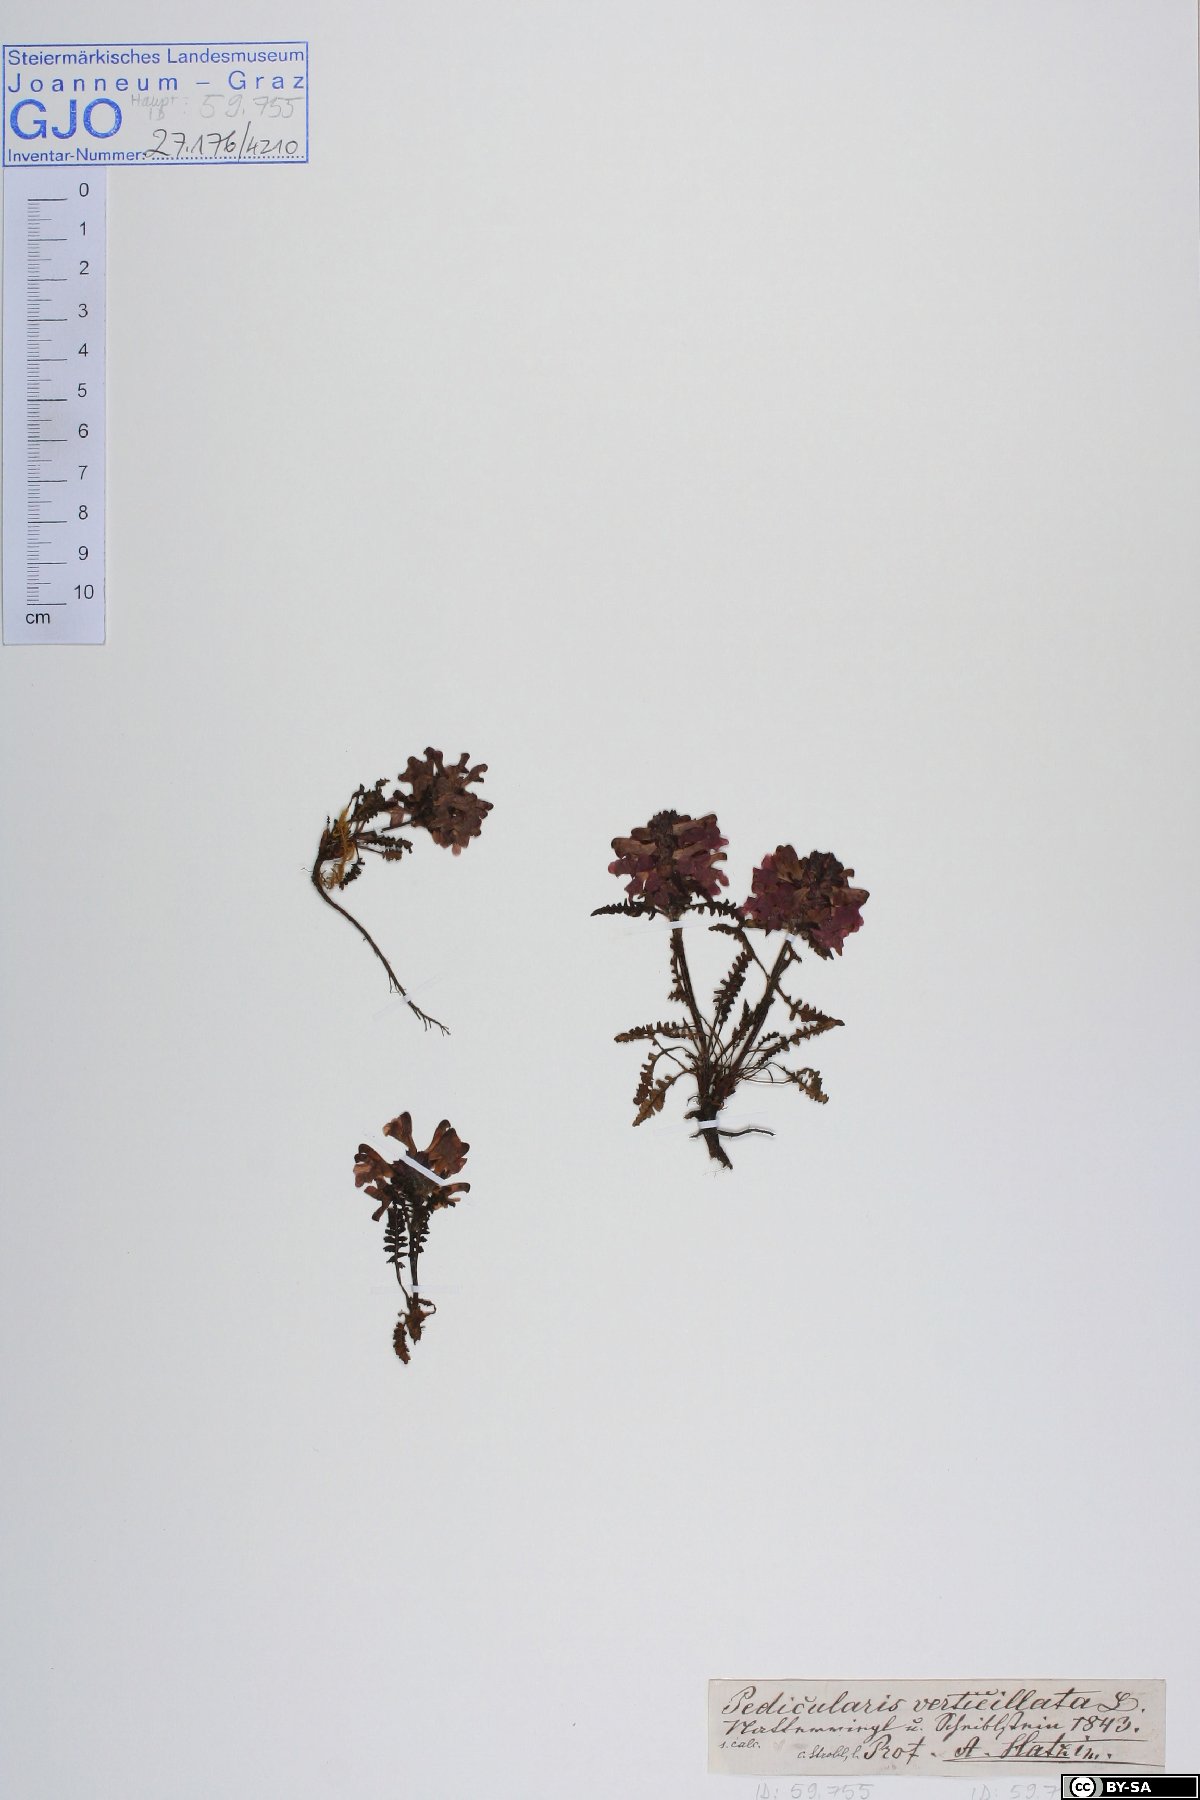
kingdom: Plantae
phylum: Tracheophyta
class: Magnoliopsida
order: Lamiales
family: Orobanchaceae
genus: Pedicularis
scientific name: Pedicularis verticillata
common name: Whorled lousewort
